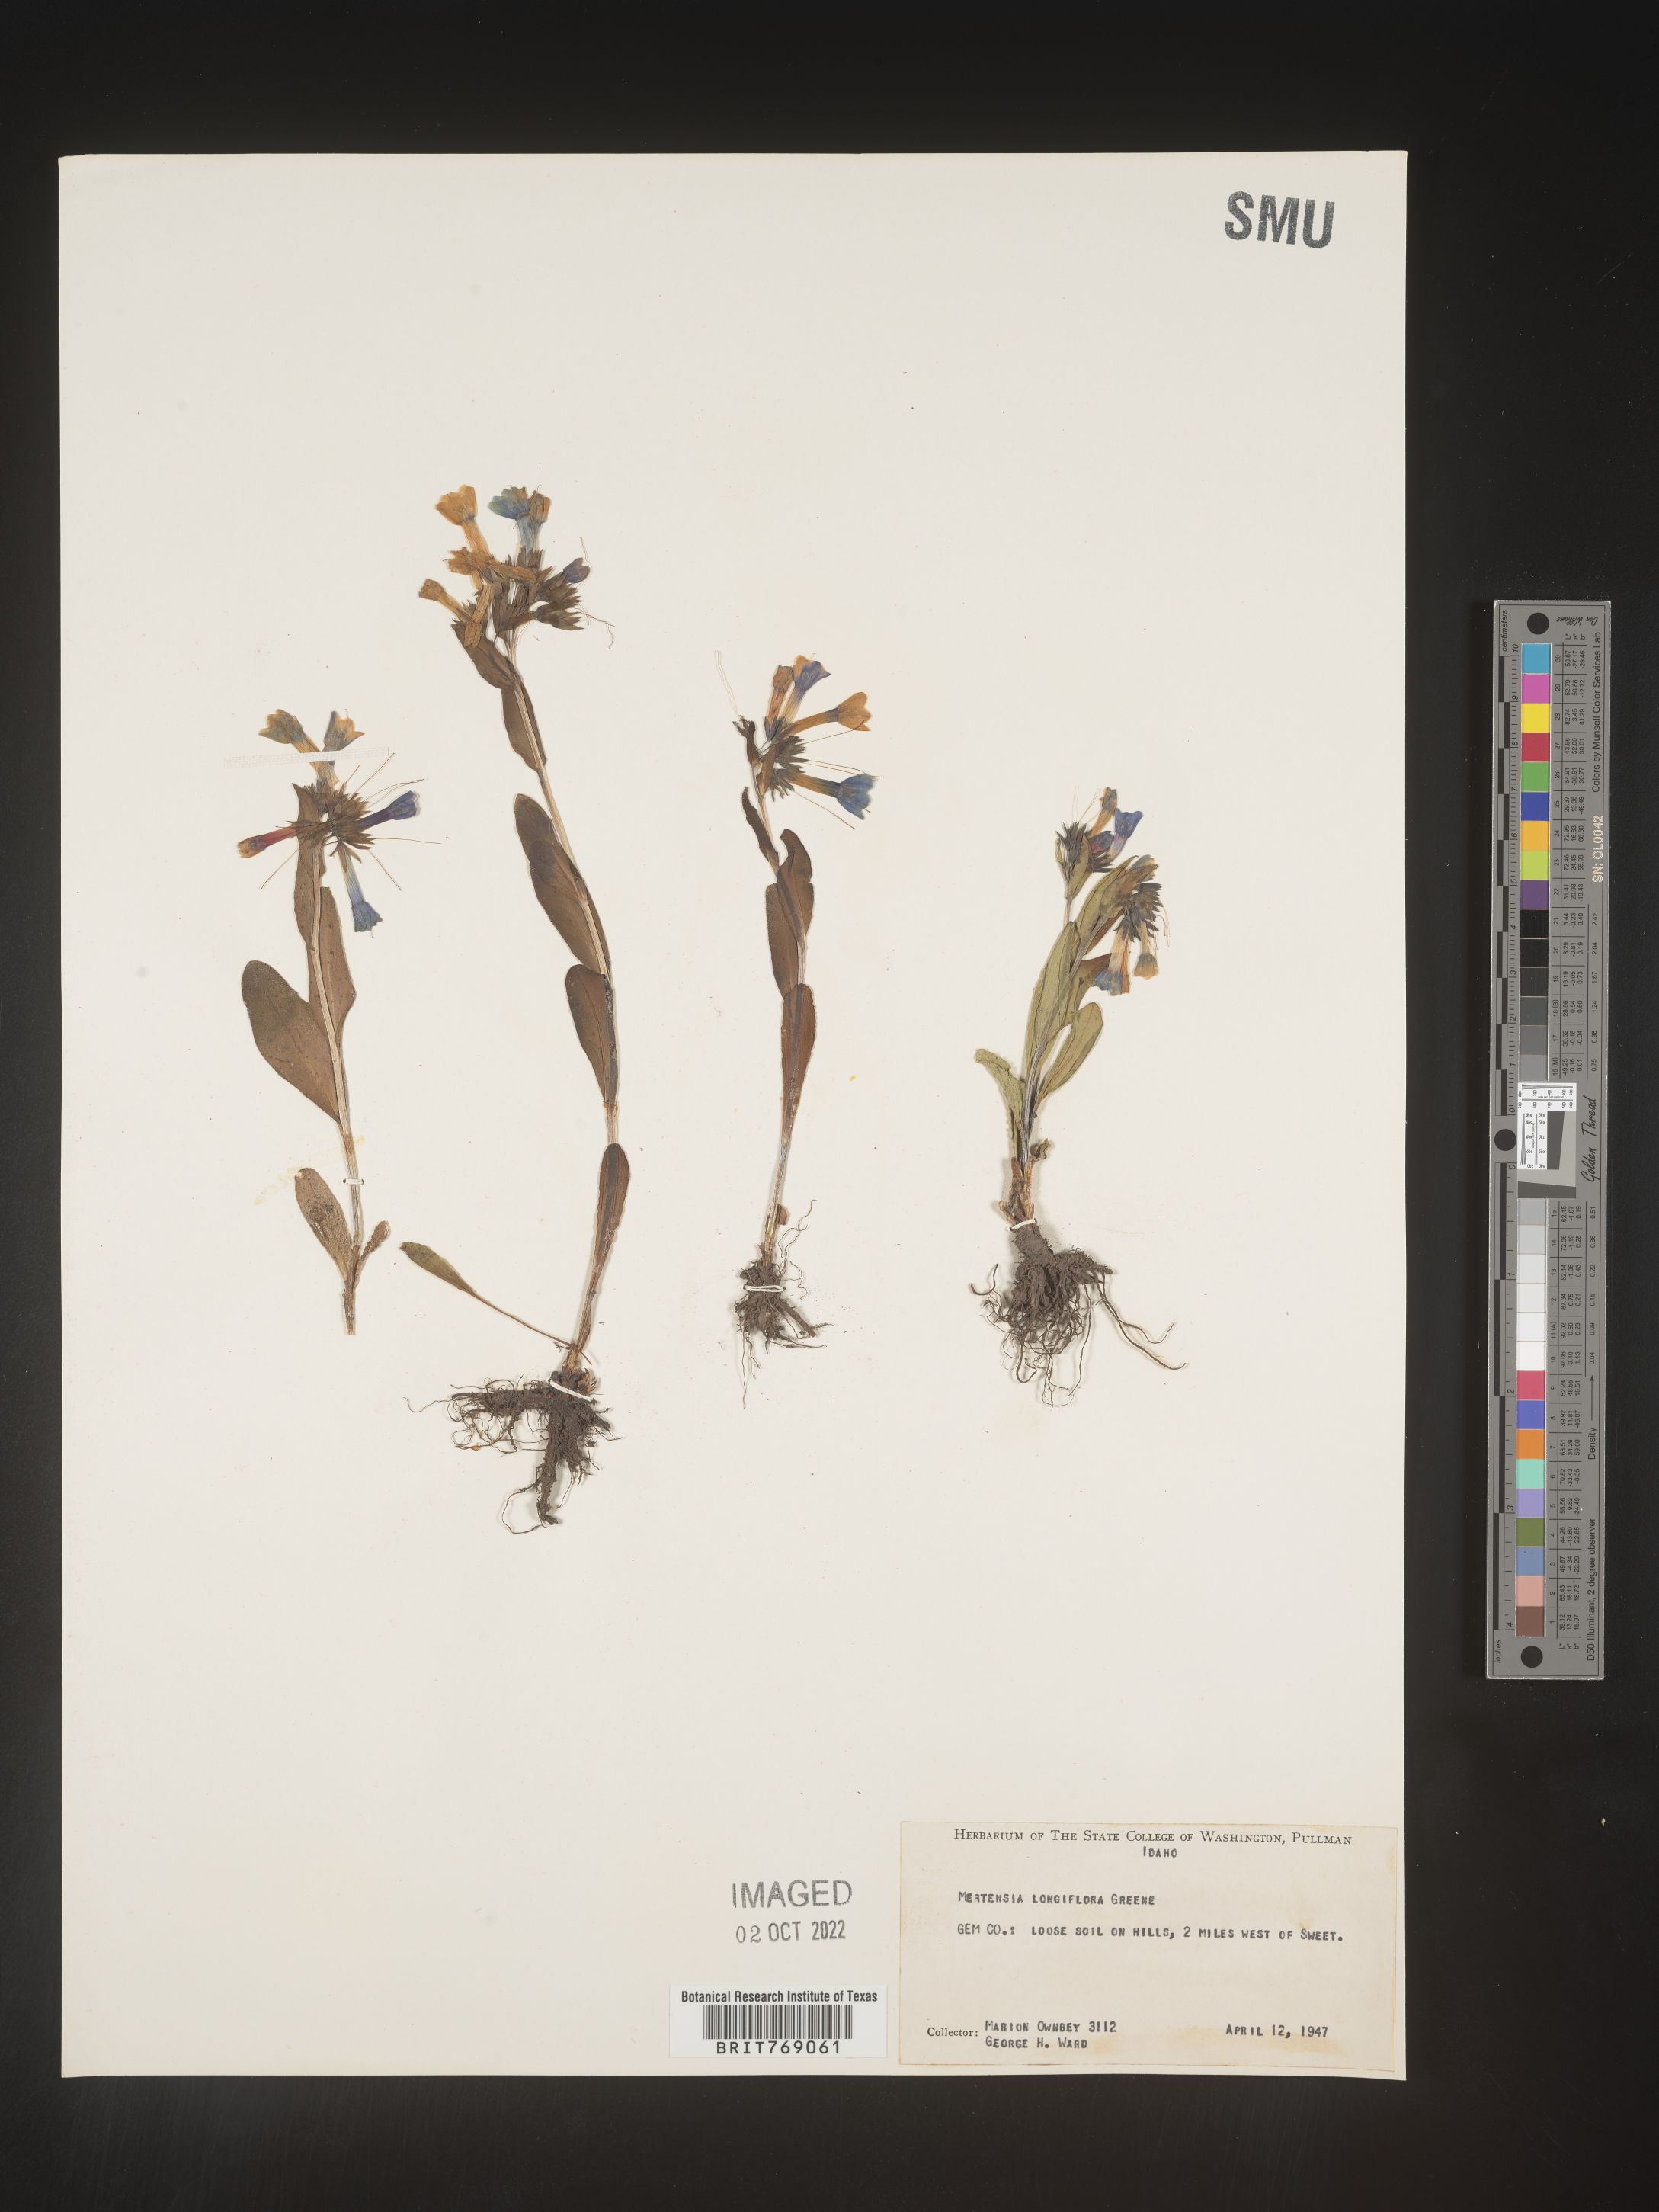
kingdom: Plantae
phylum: Tracheophyta
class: Magnoliopsida
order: Boraginales
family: Boraginaceae
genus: Mertensia
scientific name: Mertensia
